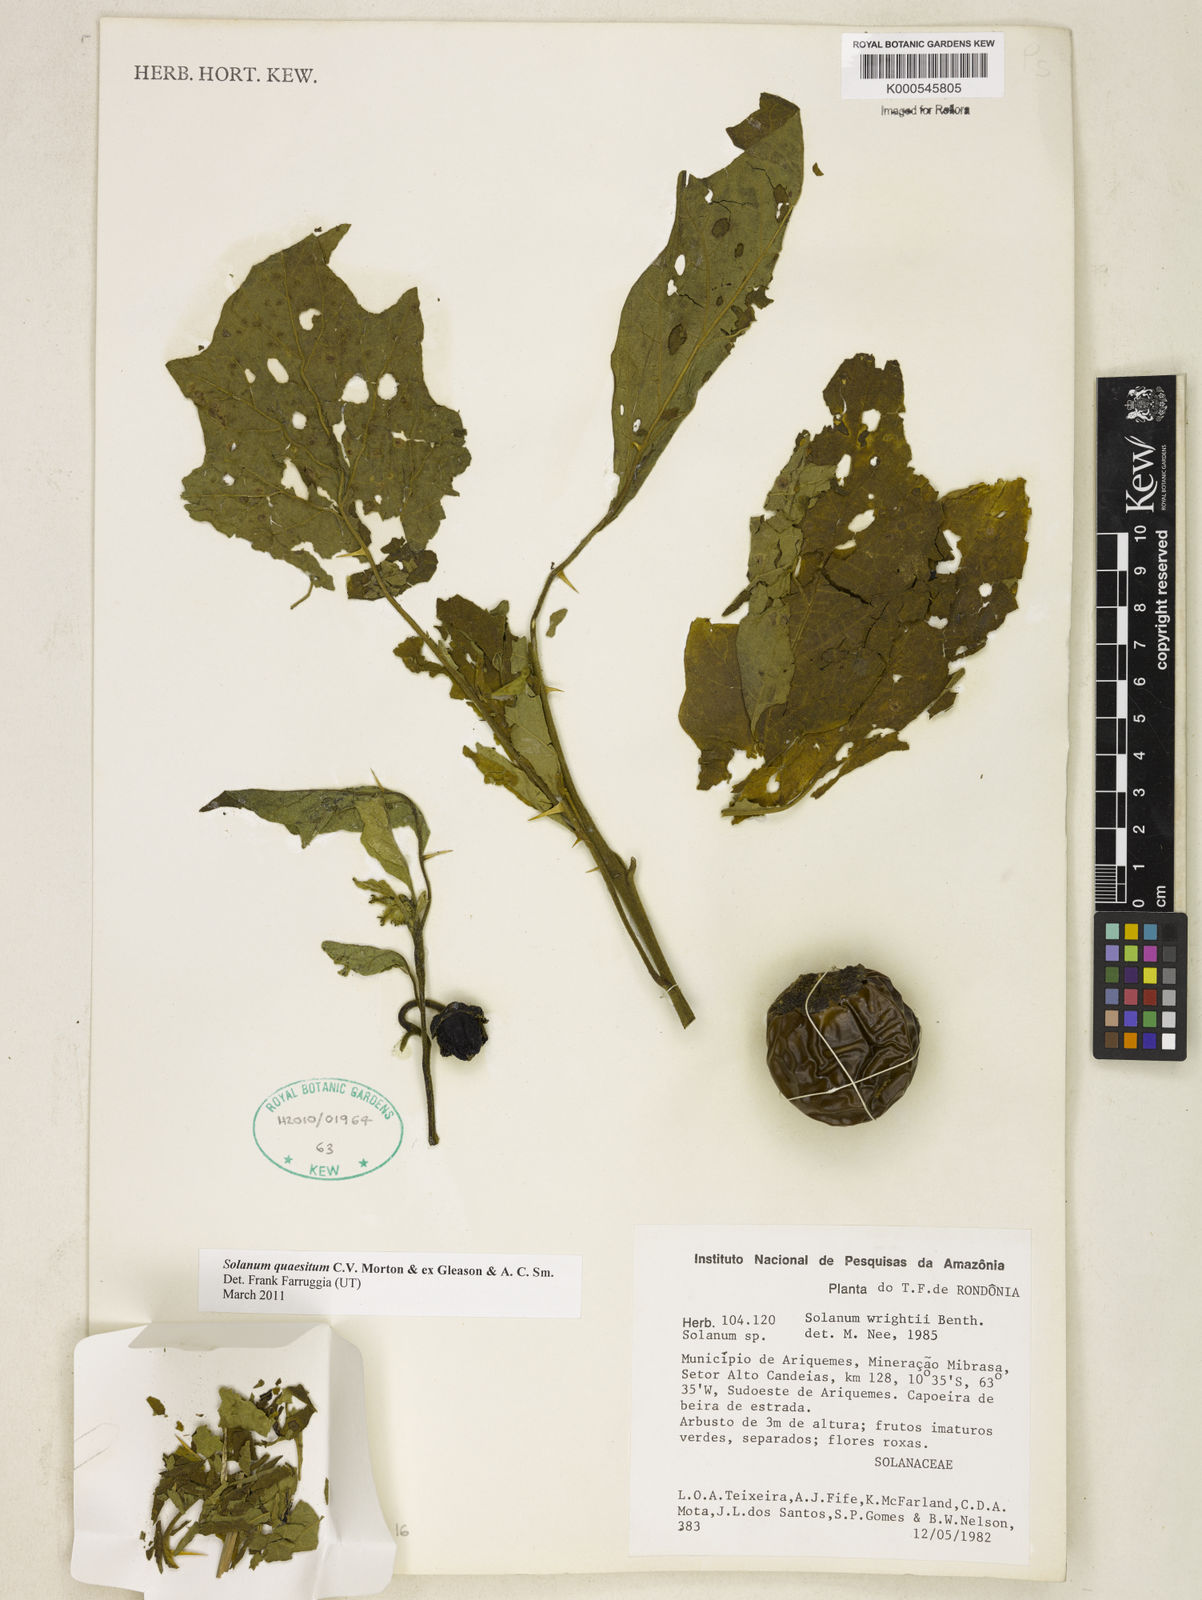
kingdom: Plantae
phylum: Tracheophyta
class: Magnoliopsida
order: Solanales
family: Solanaceae
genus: Solanum
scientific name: Solanum
